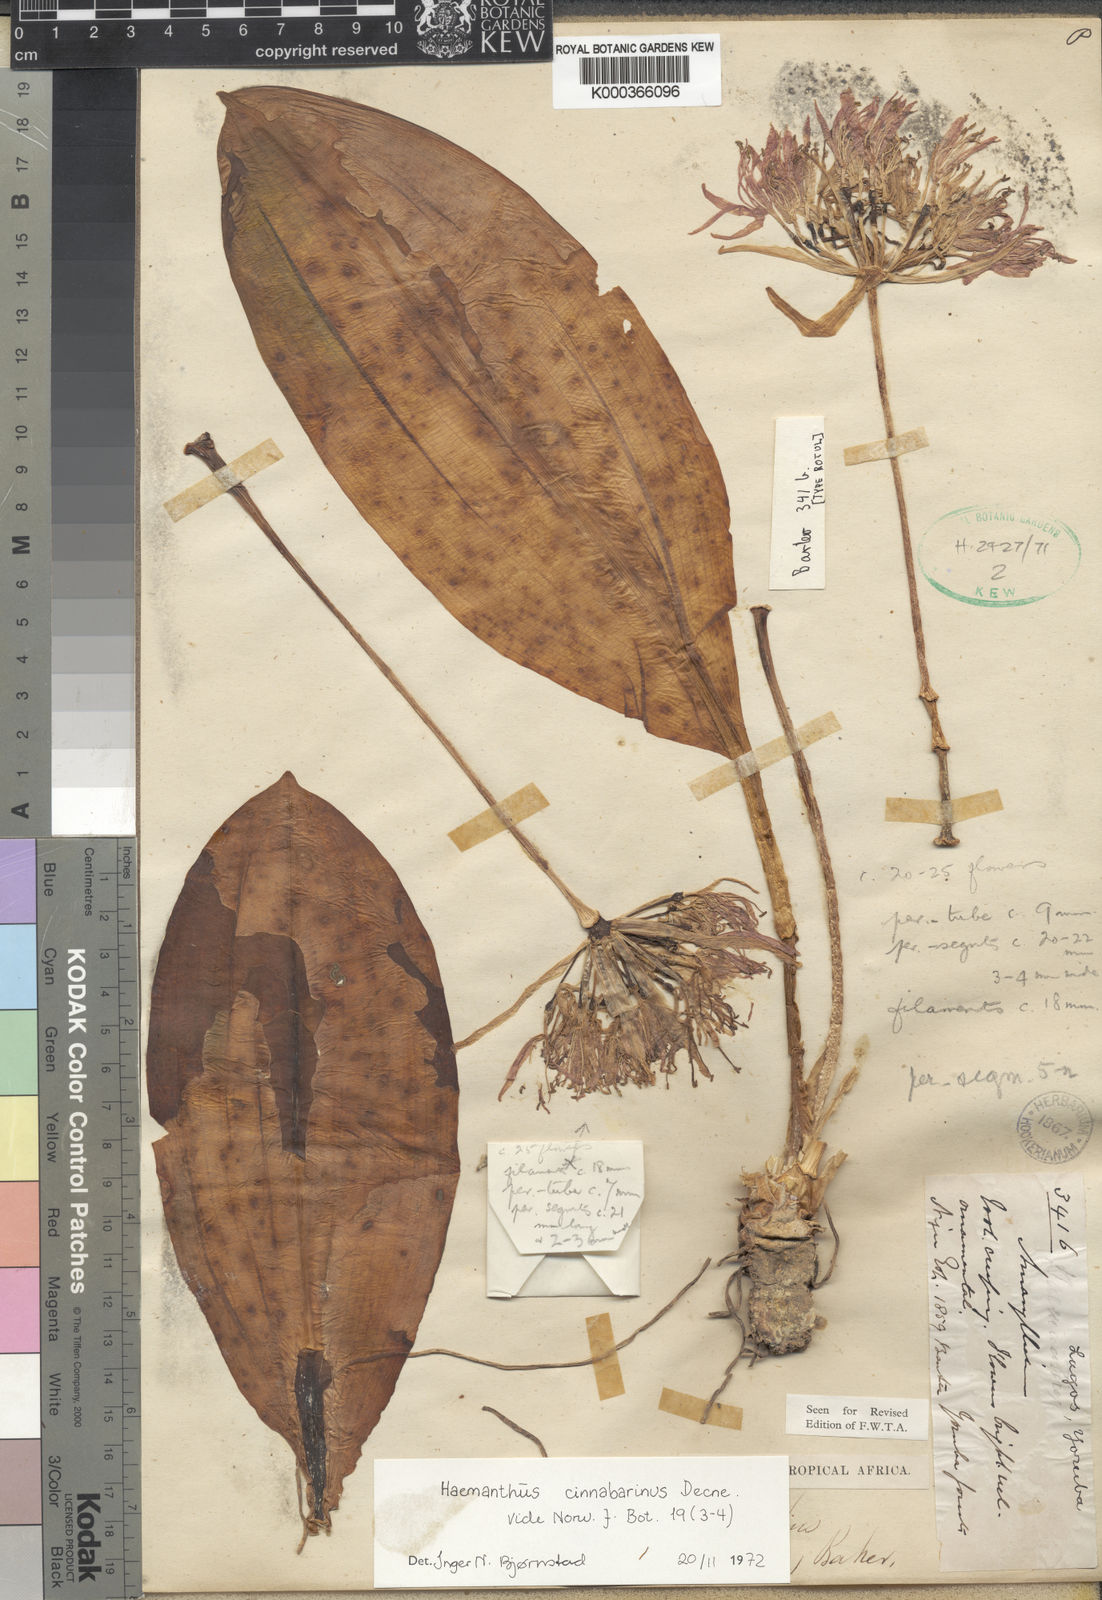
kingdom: Plantae
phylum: Tracheophyta
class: Liliopsida
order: Asparagales
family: Amaryllidaceae
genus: Scadoxus
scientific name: Scadoxus cinnabarinus
